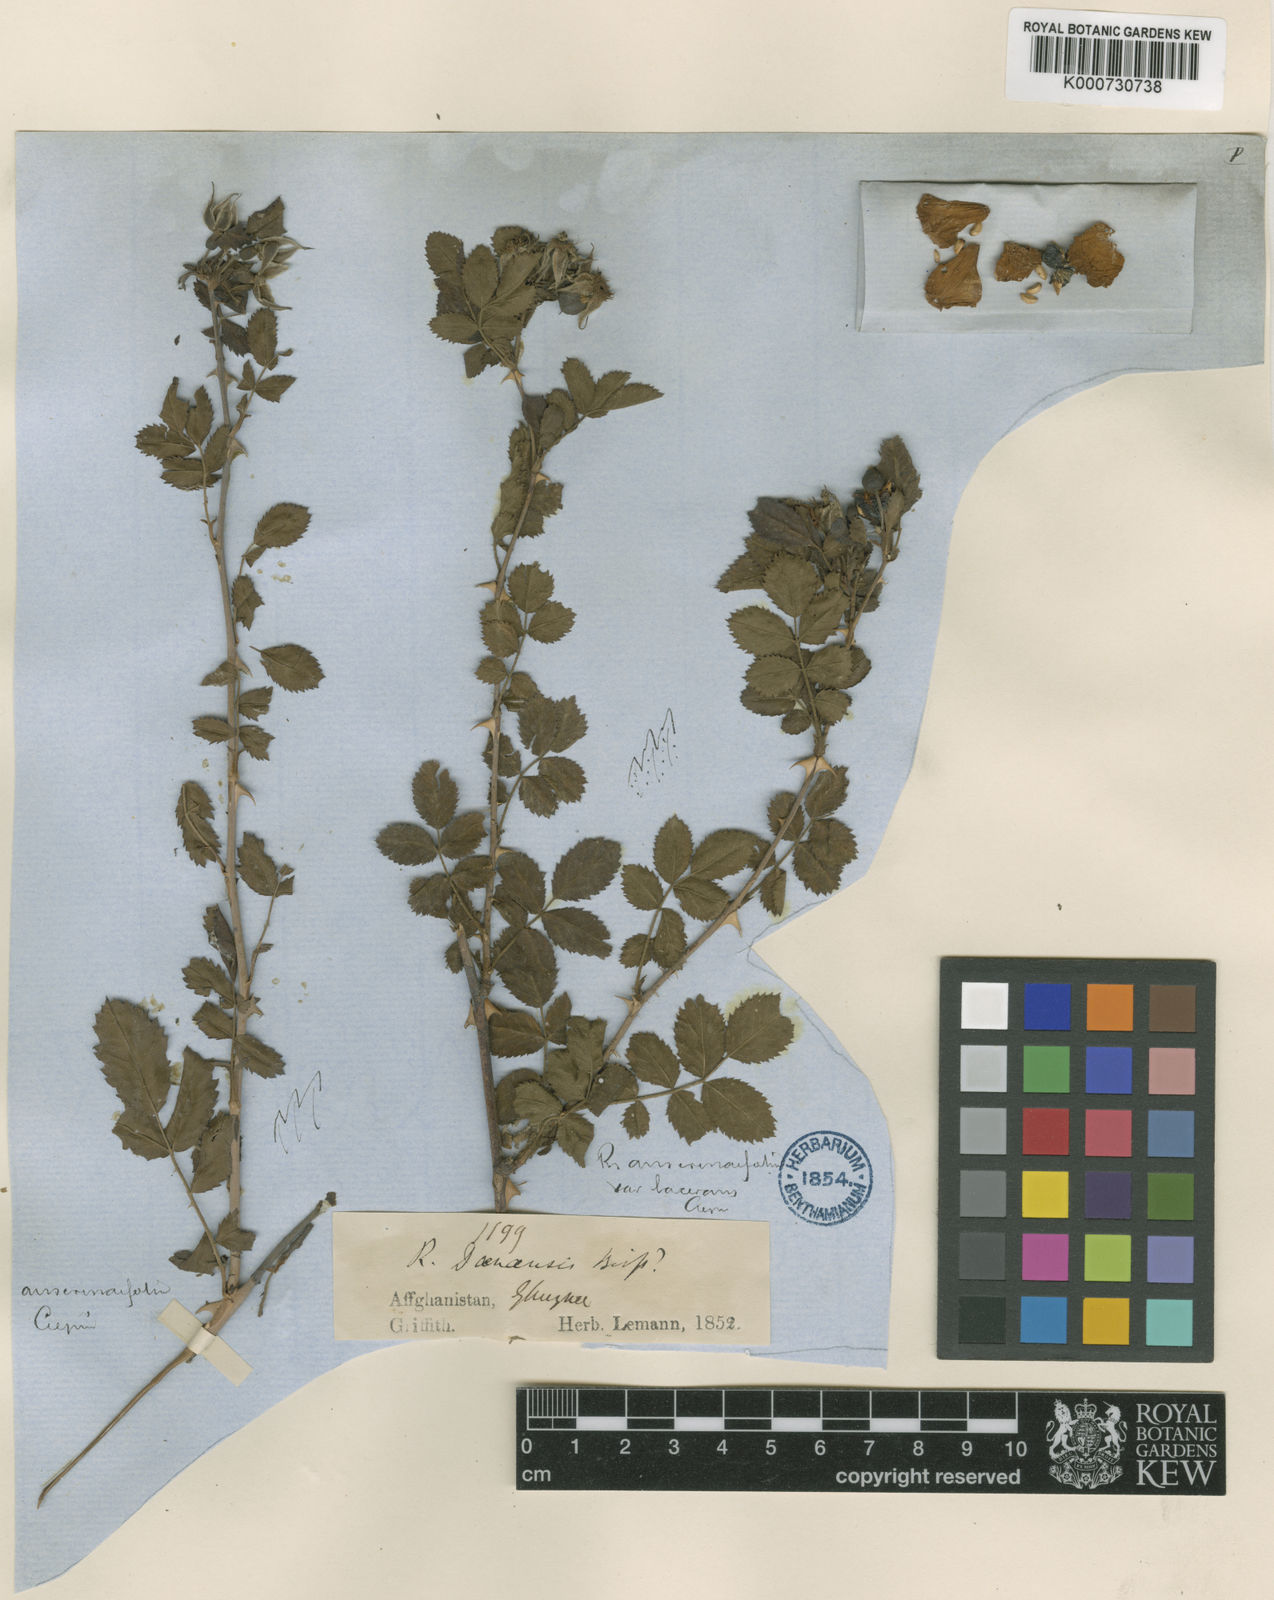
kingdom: Plantae
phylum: Tracheophyta
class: Magnoliopsida
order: Rosales
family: Rosaceae
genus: Rosa
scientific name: Rosa beggeriana
